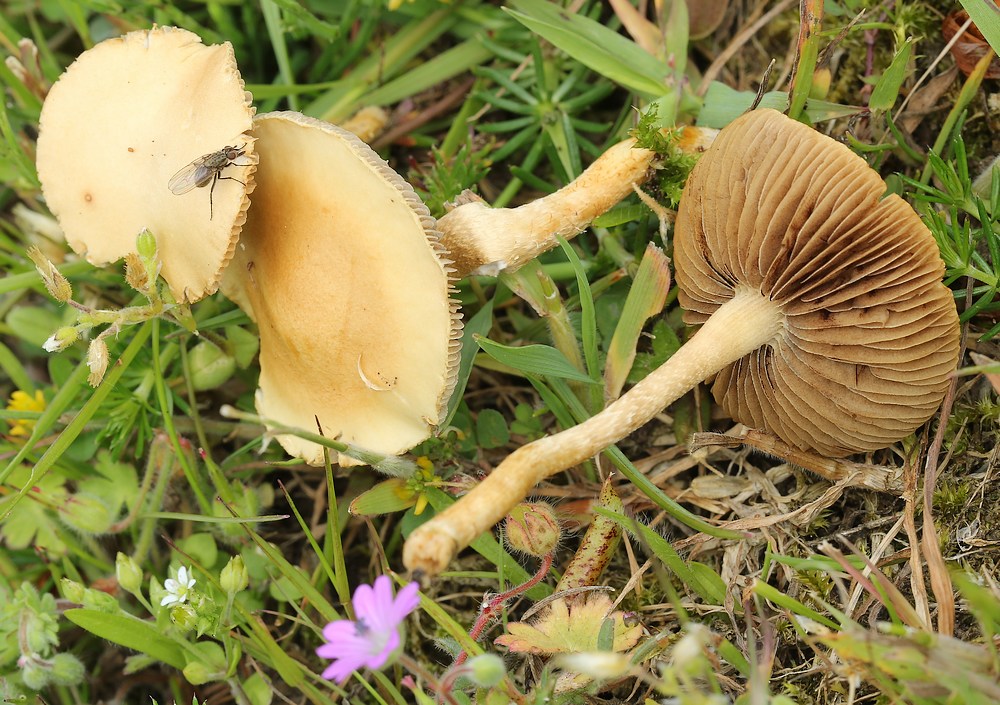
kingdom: Fungi
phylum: Basidiomycota
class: Agaricomycetes
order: Agaricales
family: Strophariaceae
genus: Agrocybe
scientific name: Agrocybe pediades
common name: almindelig agerhat
